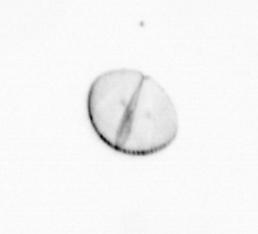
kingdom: Chromista
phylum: Ochrophyta
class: Bacillariophyceae
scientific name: Bacillariophyceae
